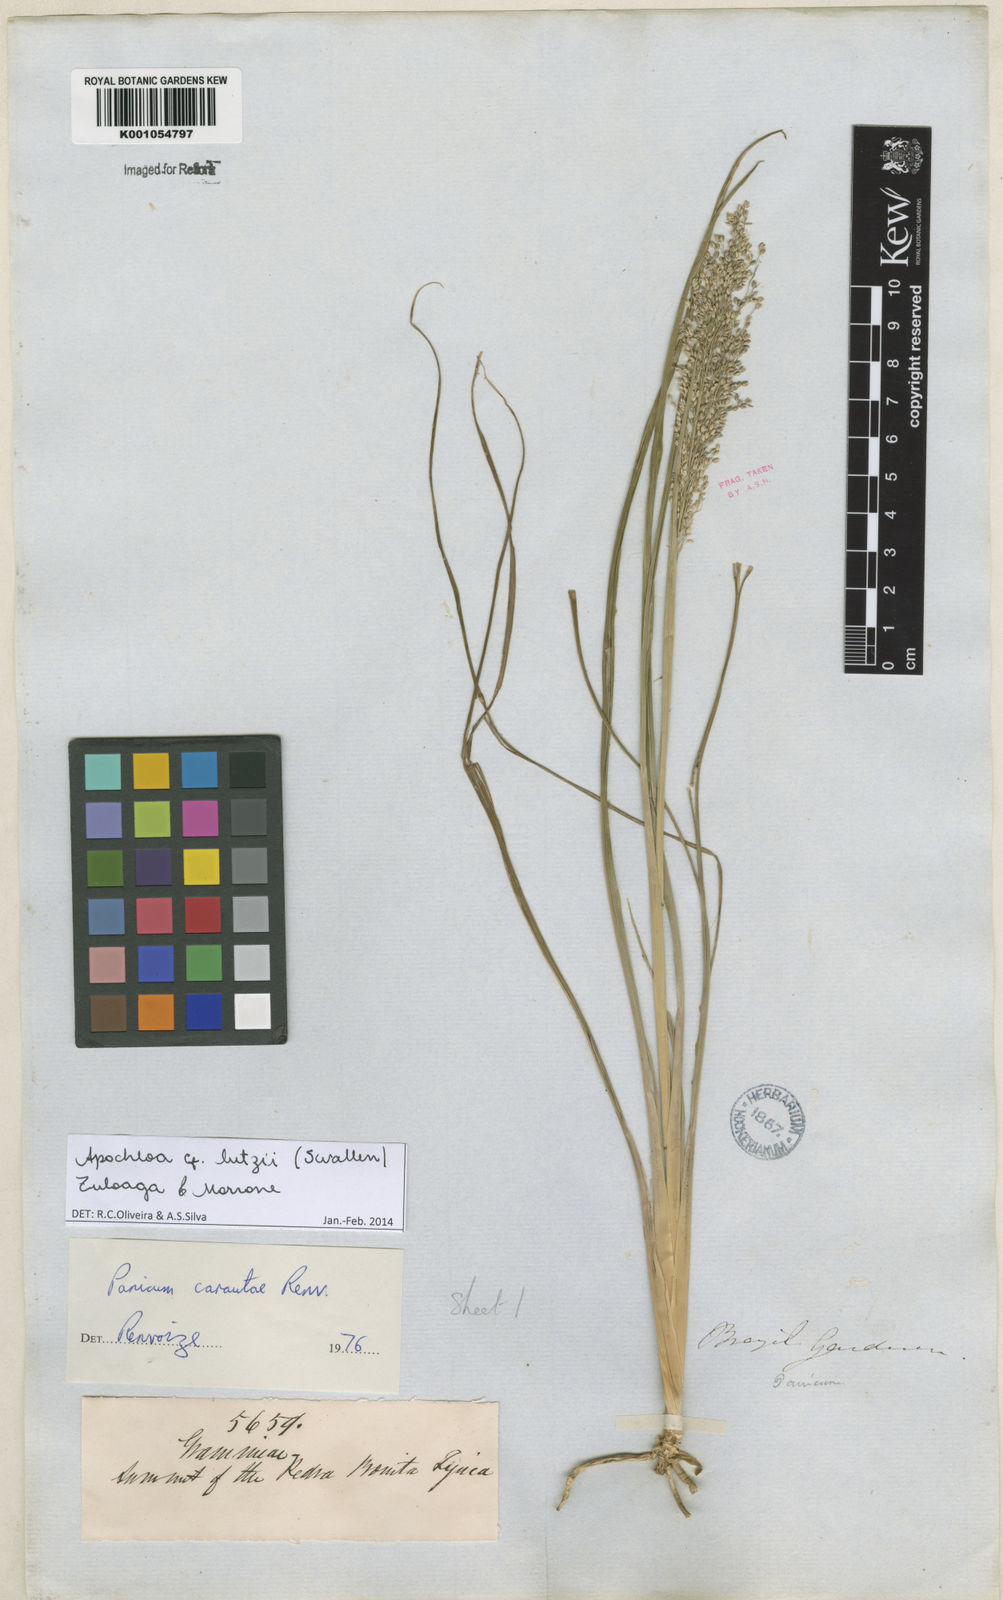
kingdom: Plantae
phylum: Tracheophyta
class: Liliopsida
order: Poales
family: Poaceae
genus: Apochloa
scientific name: Apochloa lutzii
